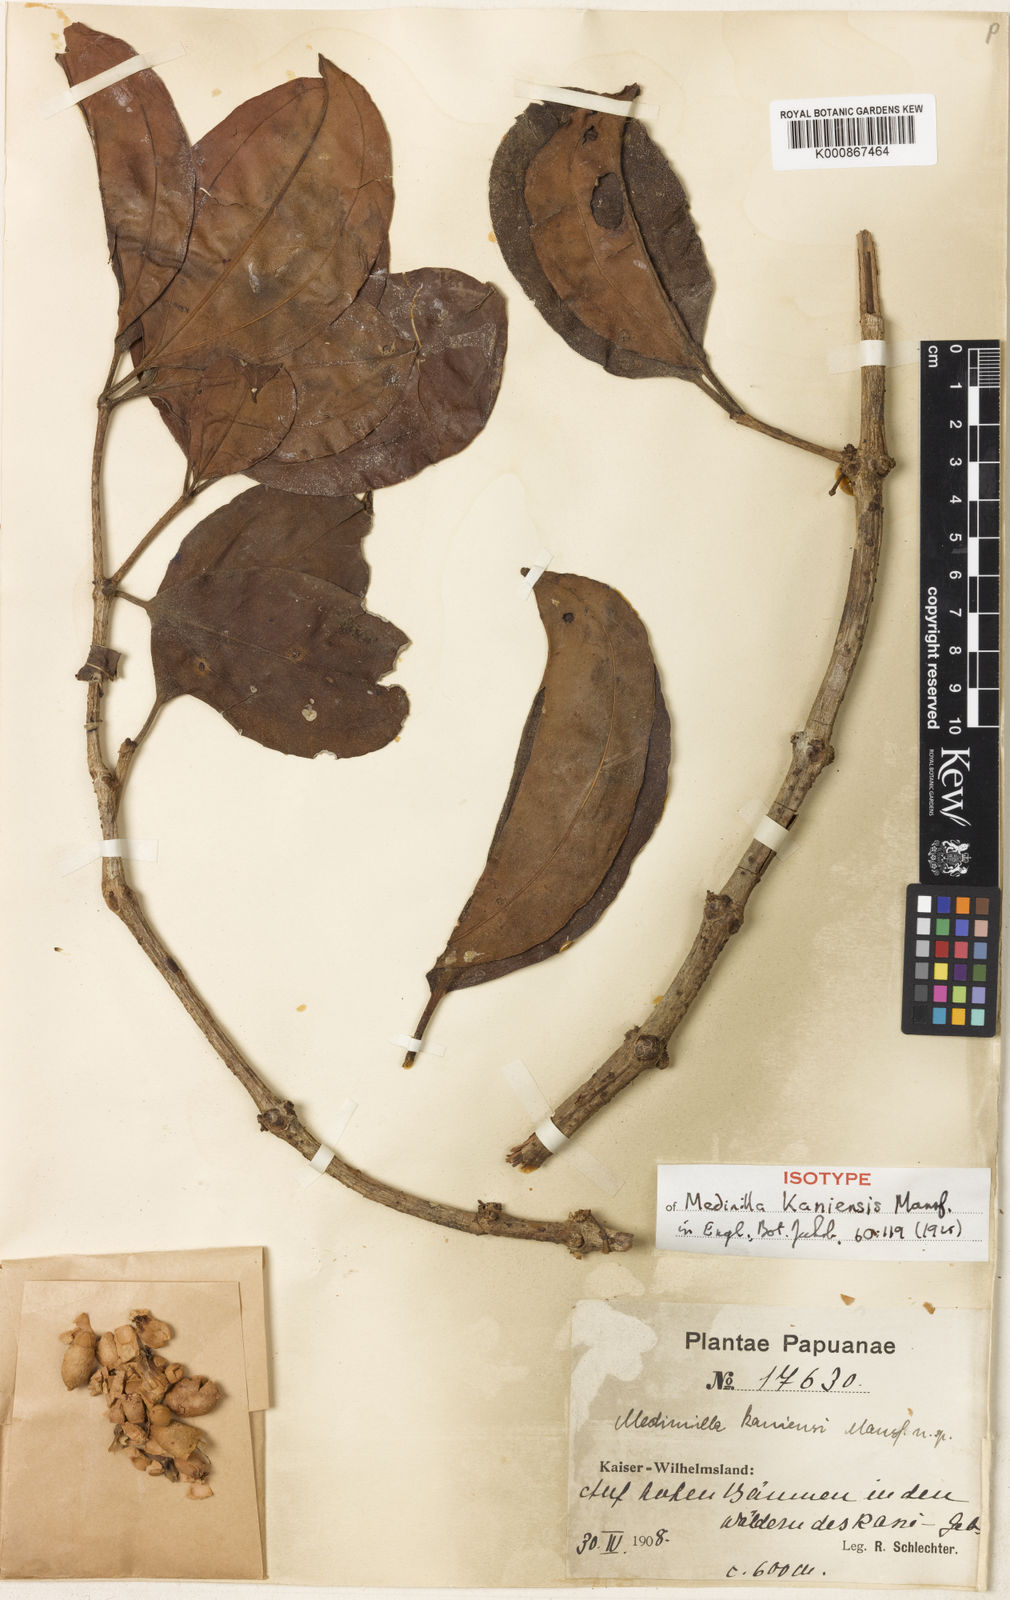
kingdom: Plantae
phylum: Tracheophyta
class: Magnoliopsida
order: Myrtales
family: Melastomataceae
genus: Medinilla
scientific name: Medinilla kaniensis
